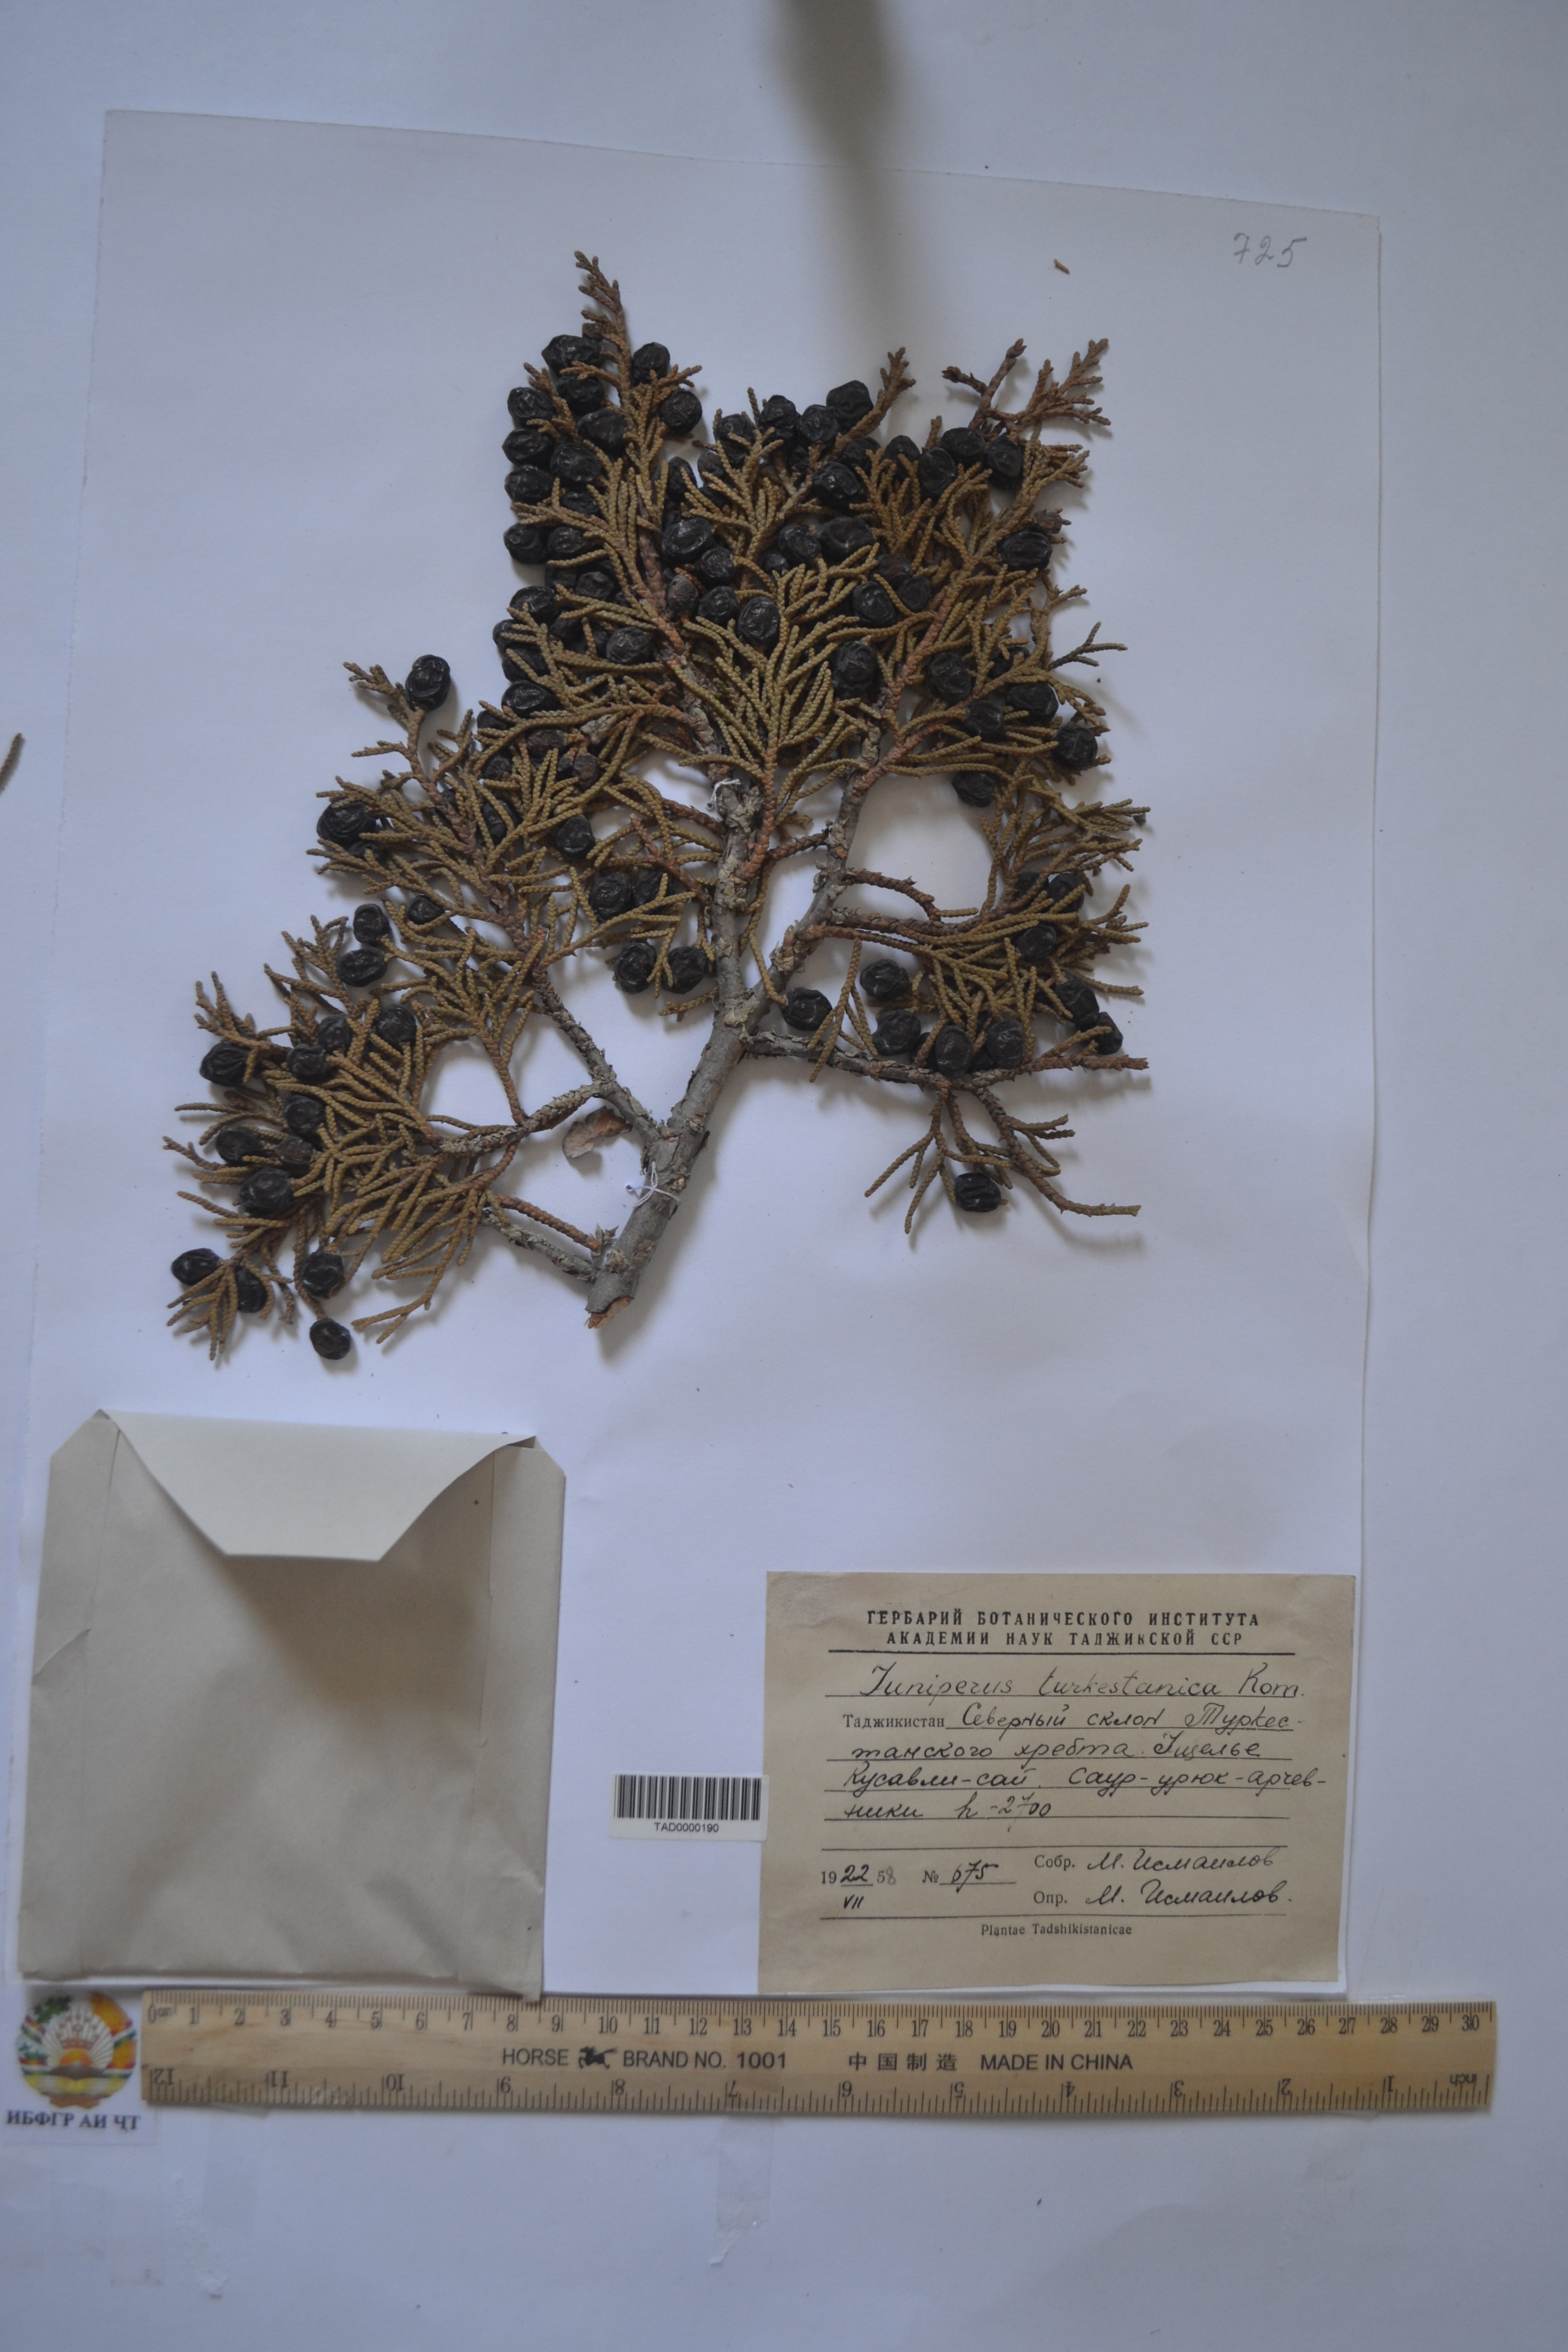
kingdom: Plantae
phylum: Tracheophyta
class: Pinopsida
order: Pinales
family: Cupressaceae
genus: Juniperus
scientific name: Juniperus pseudosabina
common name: Turkestan juniper
